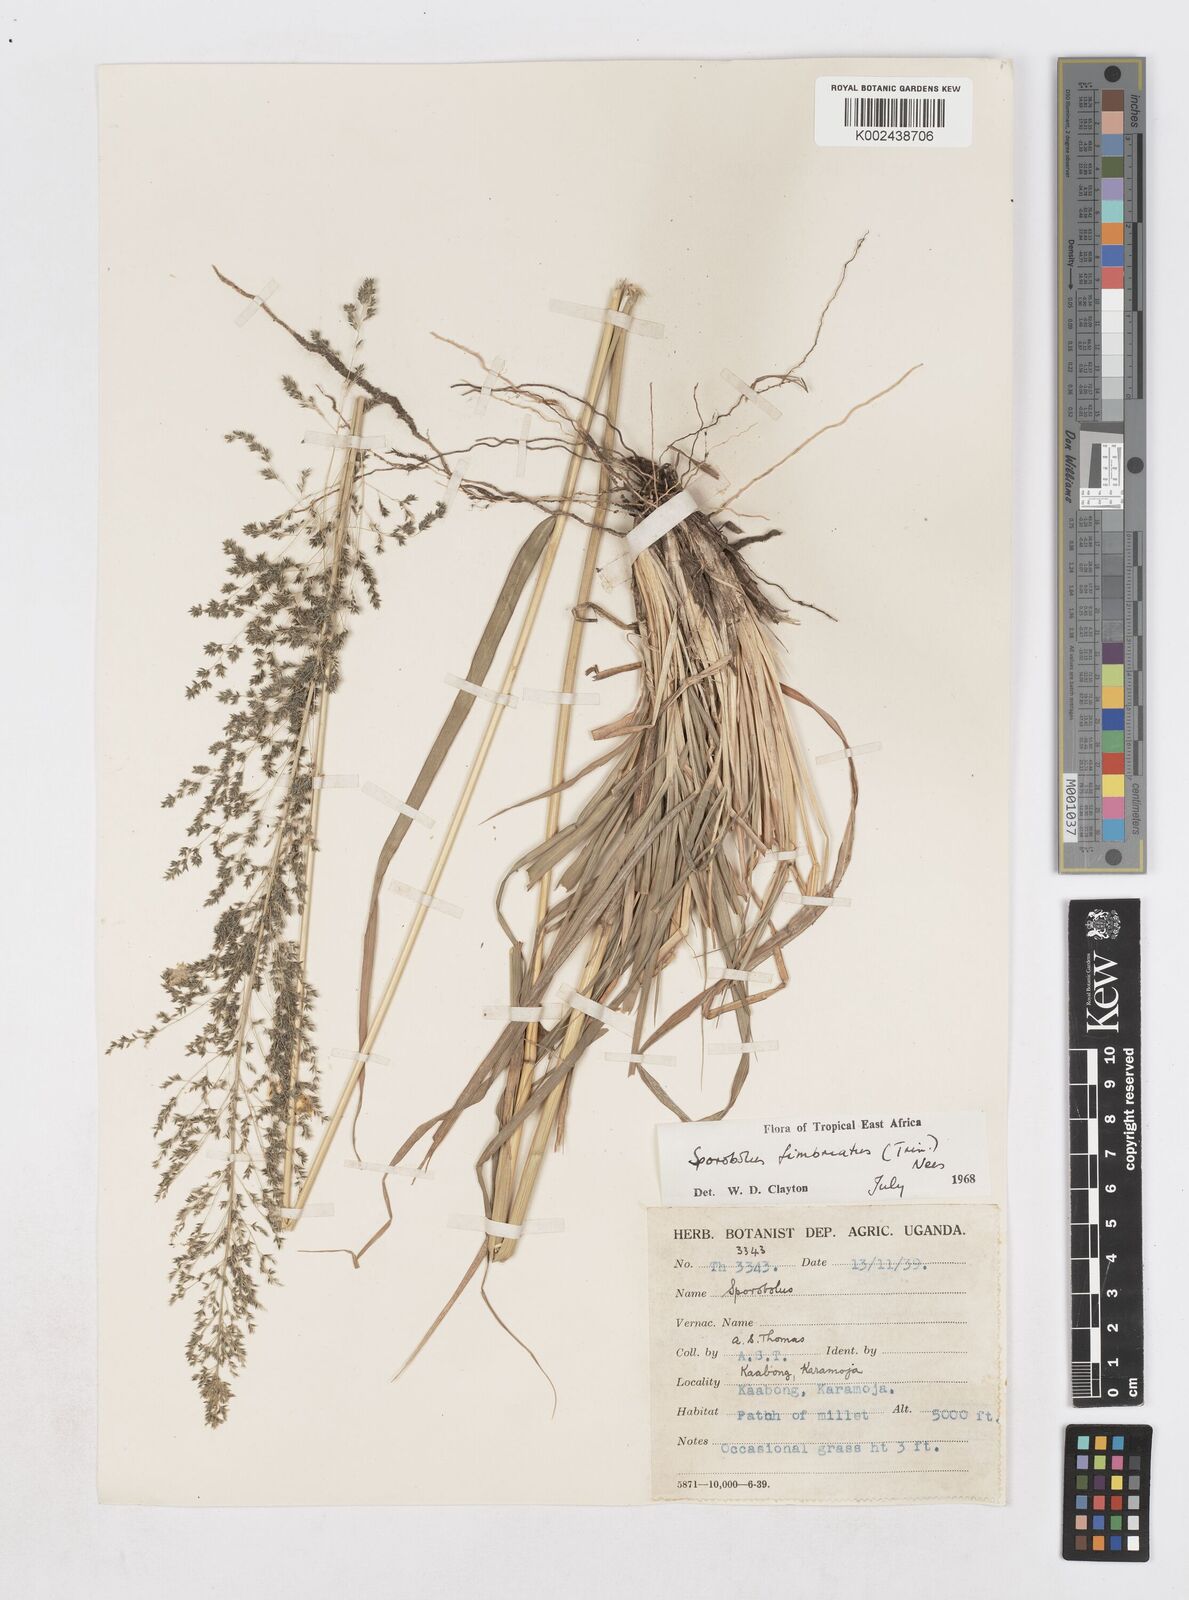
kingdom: Plantae
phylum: Tracheophyta
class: Liliopsida
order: Poales
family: Poaceae
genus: Sporobolus
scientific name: Sporobolus fimbriatus
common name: Fringed dropseed
